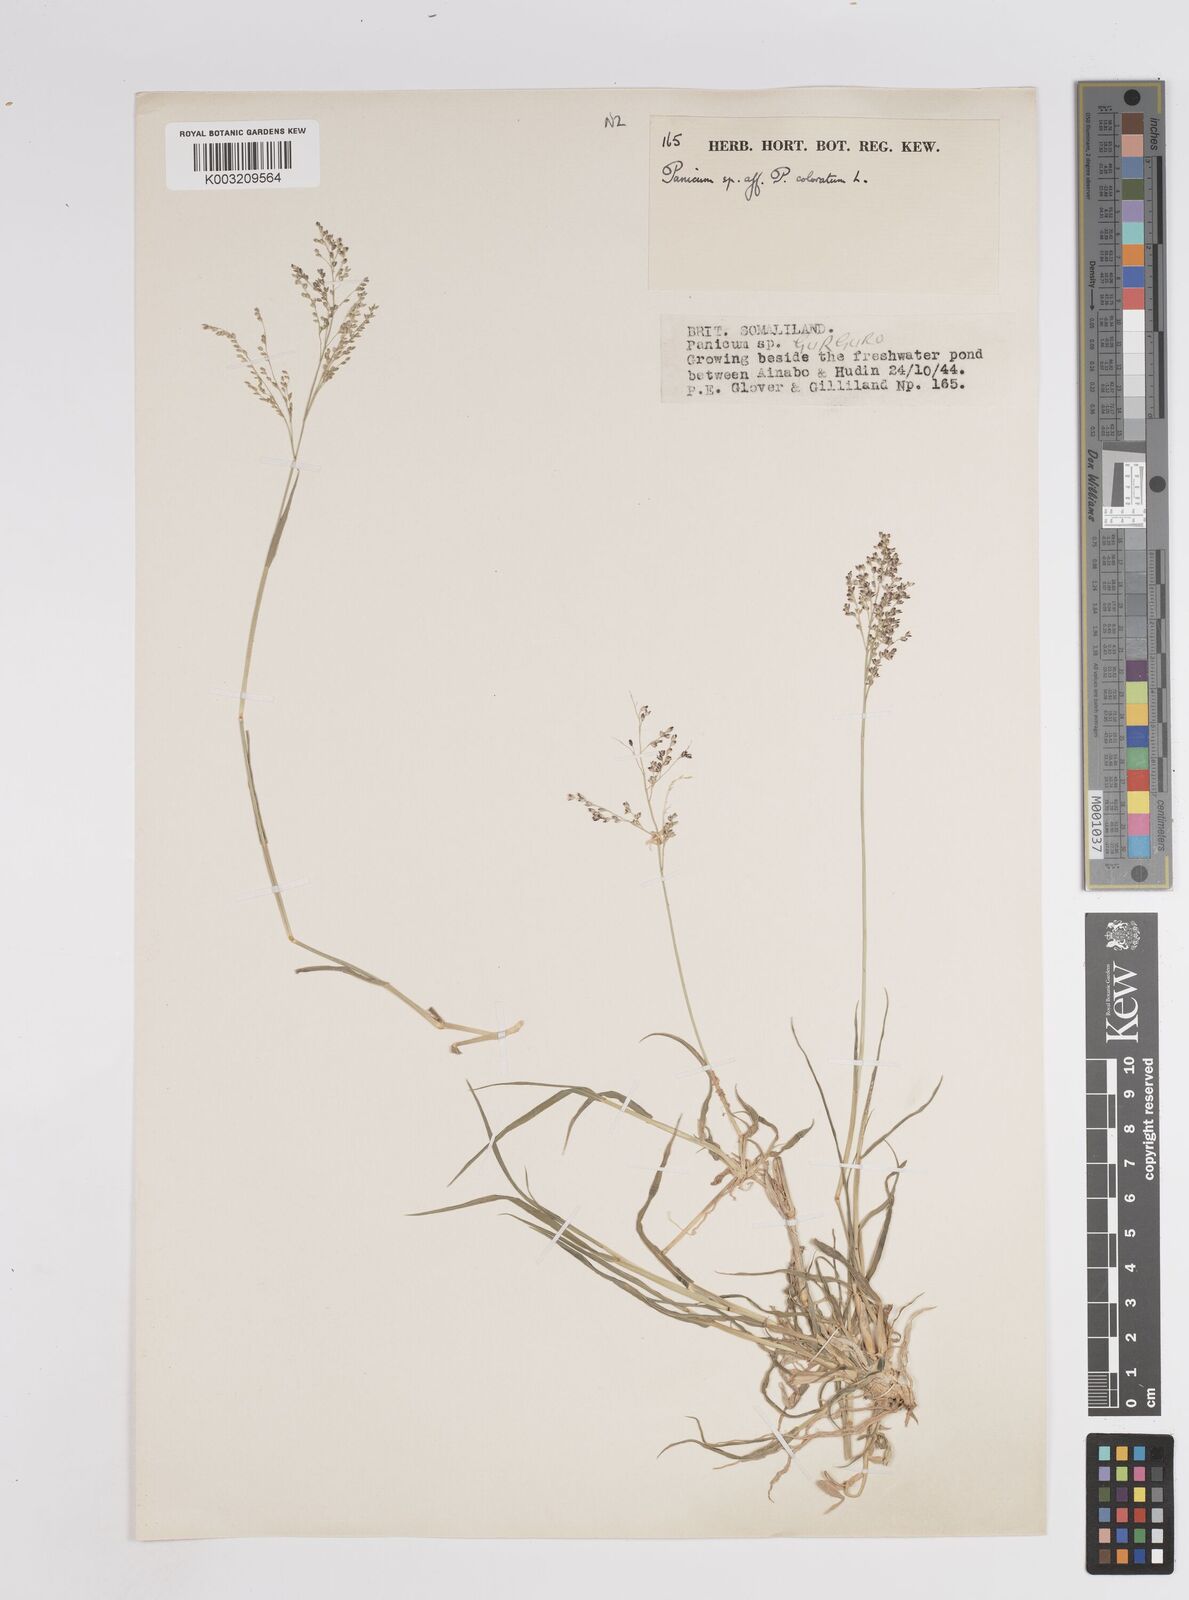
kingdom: Plantae
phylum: Tracheophyta
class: Liliopsida
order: Poales
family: Poaceae
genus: Panicum
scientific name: Panicum coloratum
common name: Kleingrass
